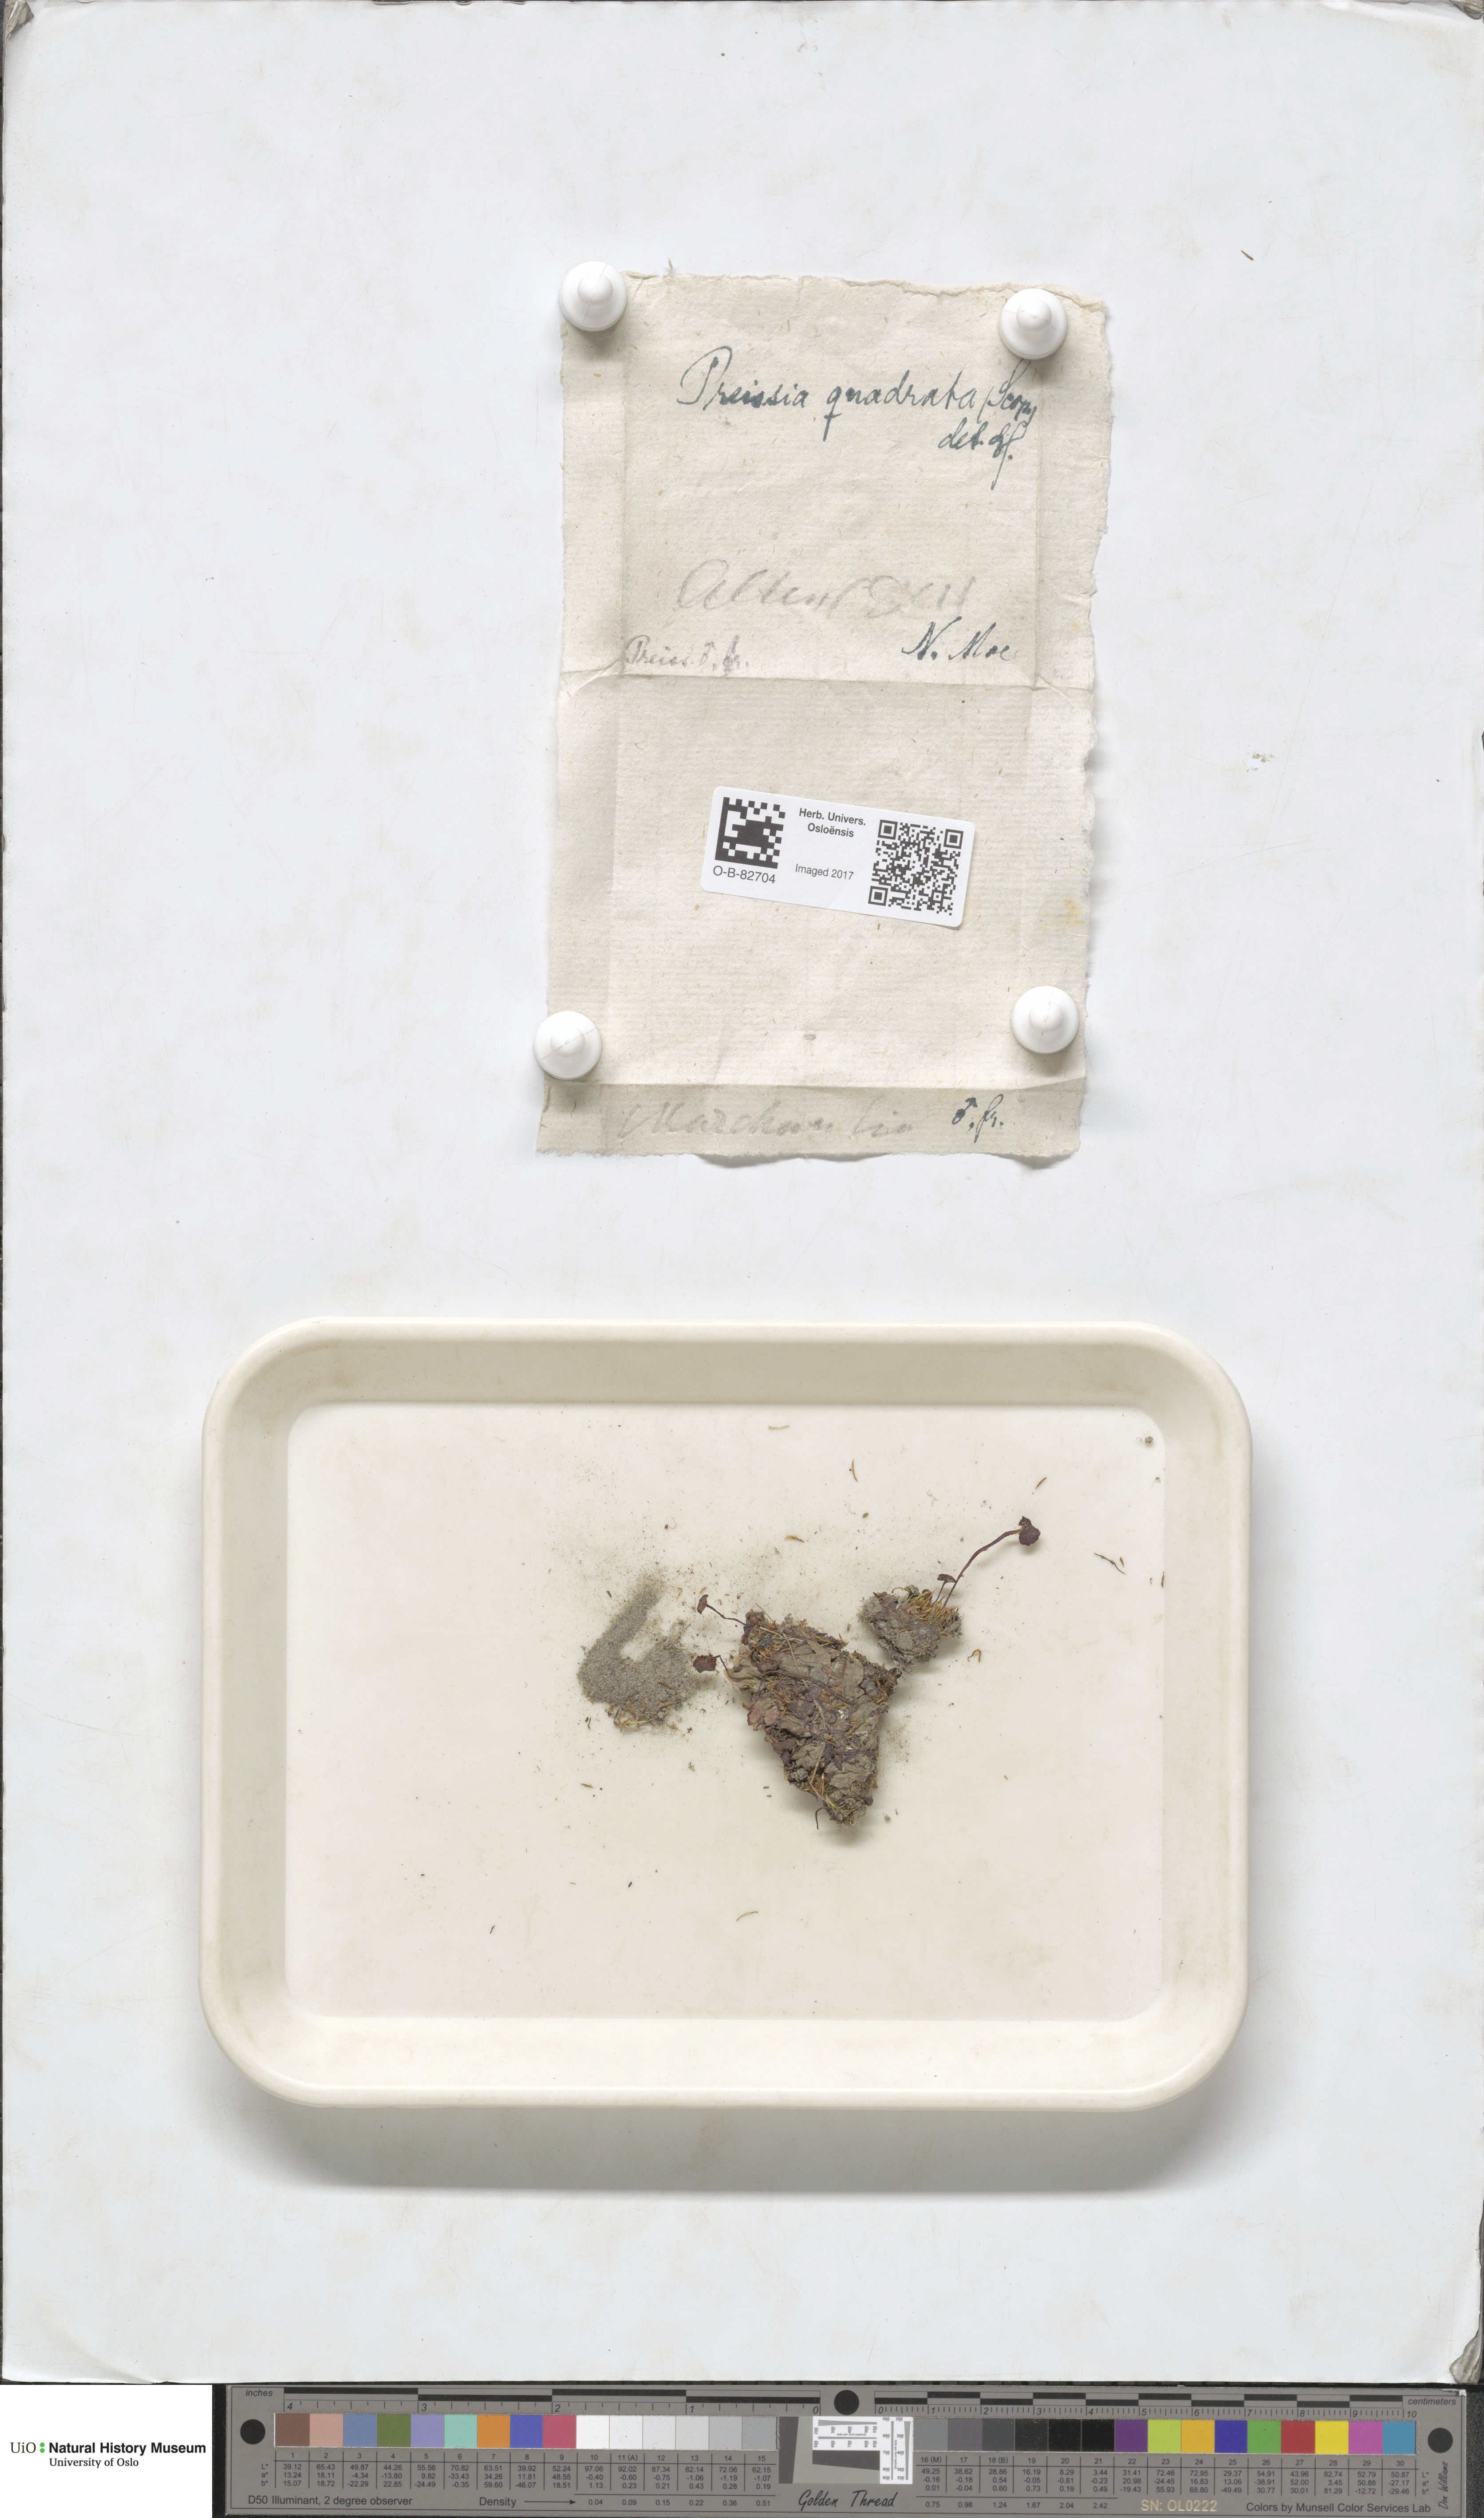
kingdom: Plantae
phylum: Marchantiophyta
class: Marchantiopsida
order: Marchantiales
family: Marchantiaceae
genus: Marchantia
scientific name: Marchantia quadrata
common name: Narrow mushroom-headed liverwort
